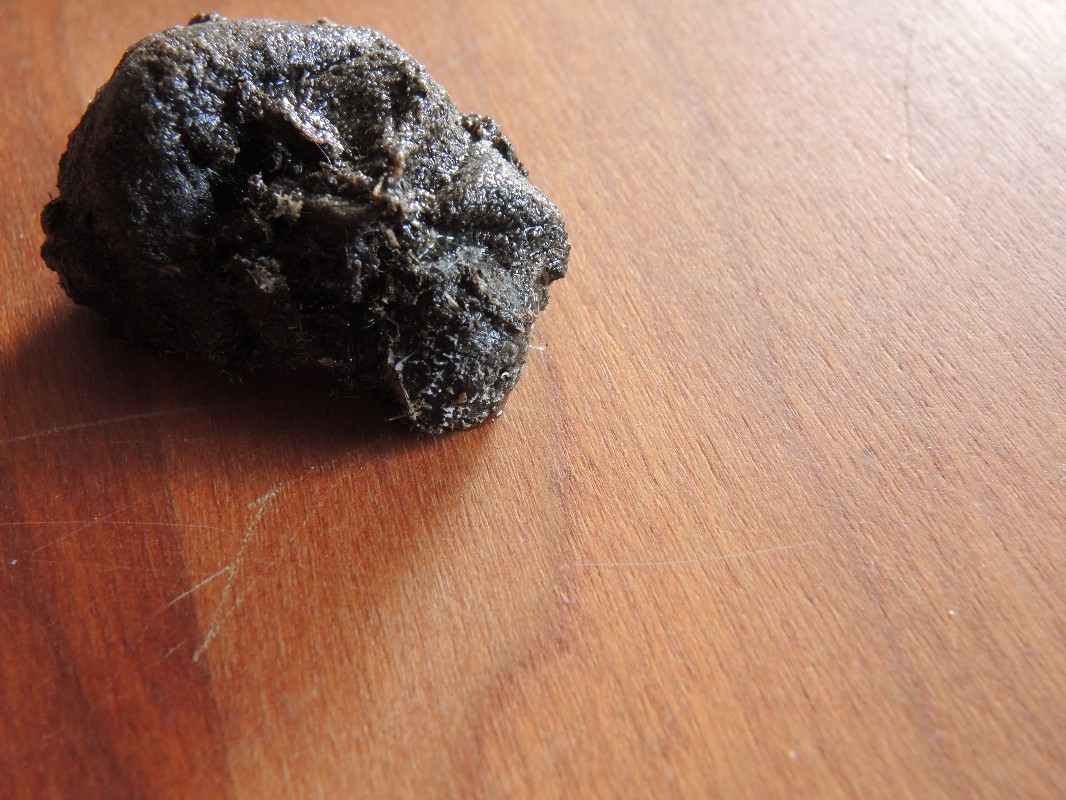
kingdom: Fungi
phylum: Mucoromycota
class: Mucoromycetes
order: Mucorales
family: Pilobolaceae
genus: Pilobolus
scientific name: Pilobolus
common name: boldkaster
